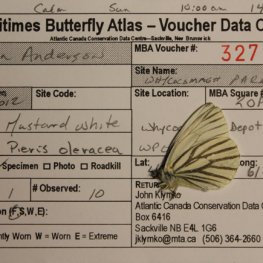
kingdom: Animalia
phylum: Arthropoda
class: Insecta
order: Lepidoptera
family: Pieridae
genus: Pieris
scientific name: Pieris oleracea
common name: Mustard White
